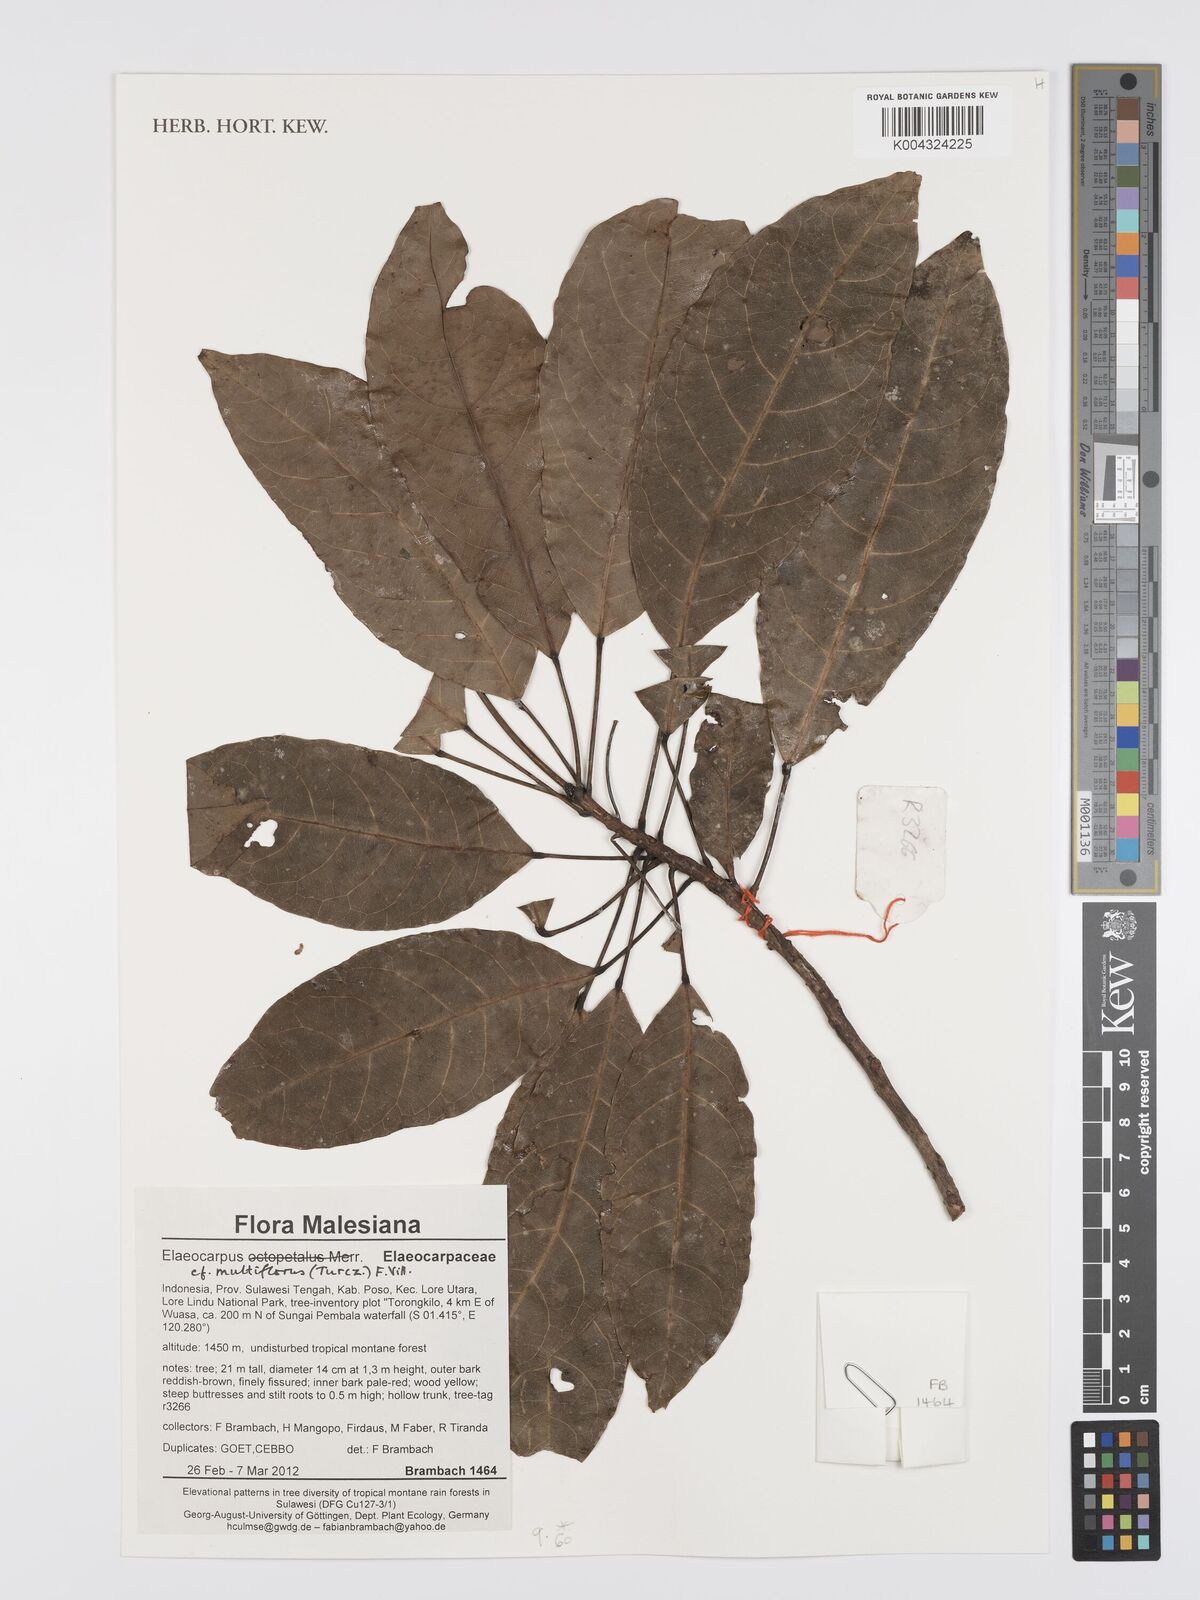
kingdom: Plantae
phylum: Tracheophyta
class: Magnoliopsida
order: Oxalidales
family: Elaeocarpaceae
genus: Elaeocarpus
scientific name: Elaeocarpus multiflorus
